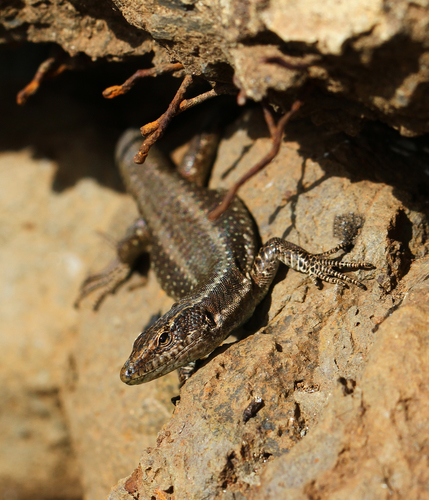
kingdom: Animalia
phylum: Chordata
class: Squamata
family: Lacertidae
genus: Teira
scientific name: Teira dugesii
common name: Madeira lizard
